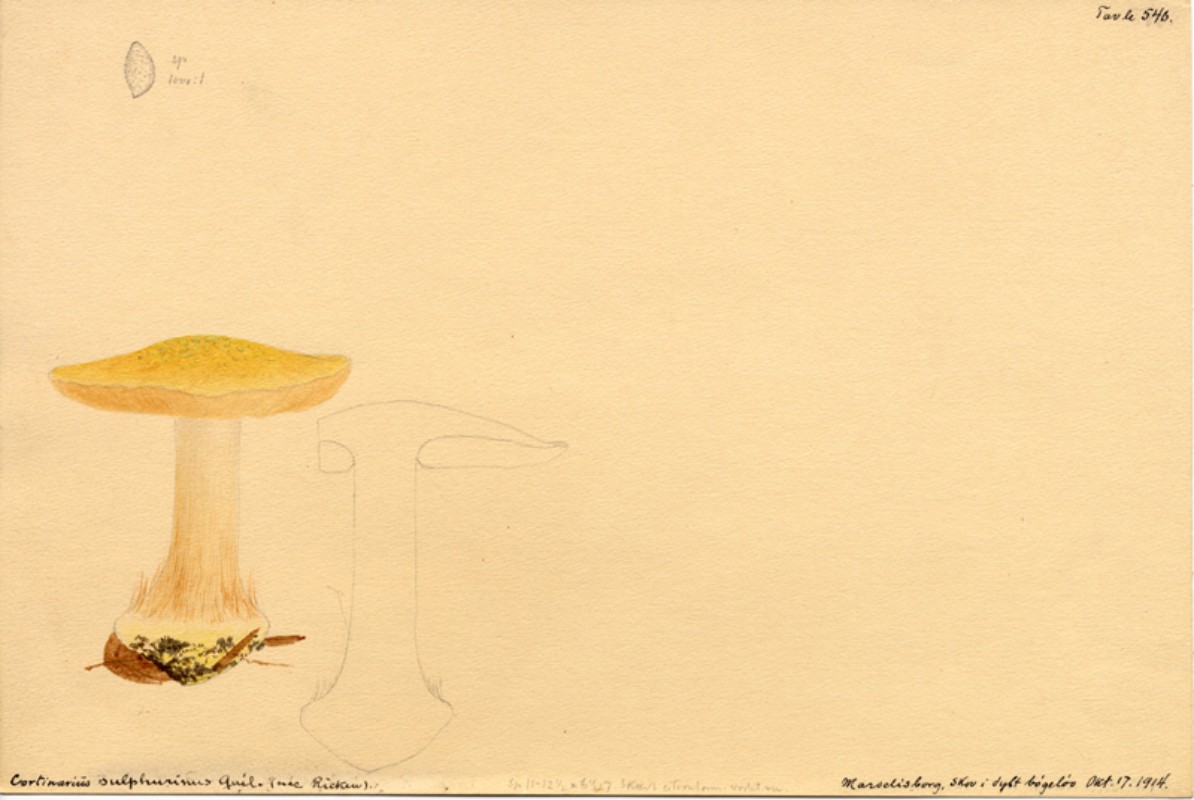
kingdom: Fungi
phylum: Basidiomycota
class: Agaricomycetes
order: Agaricales
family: Cortinariaceae
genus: Calonarius
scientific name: Calonarius langeorum
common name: Langes slørhat
